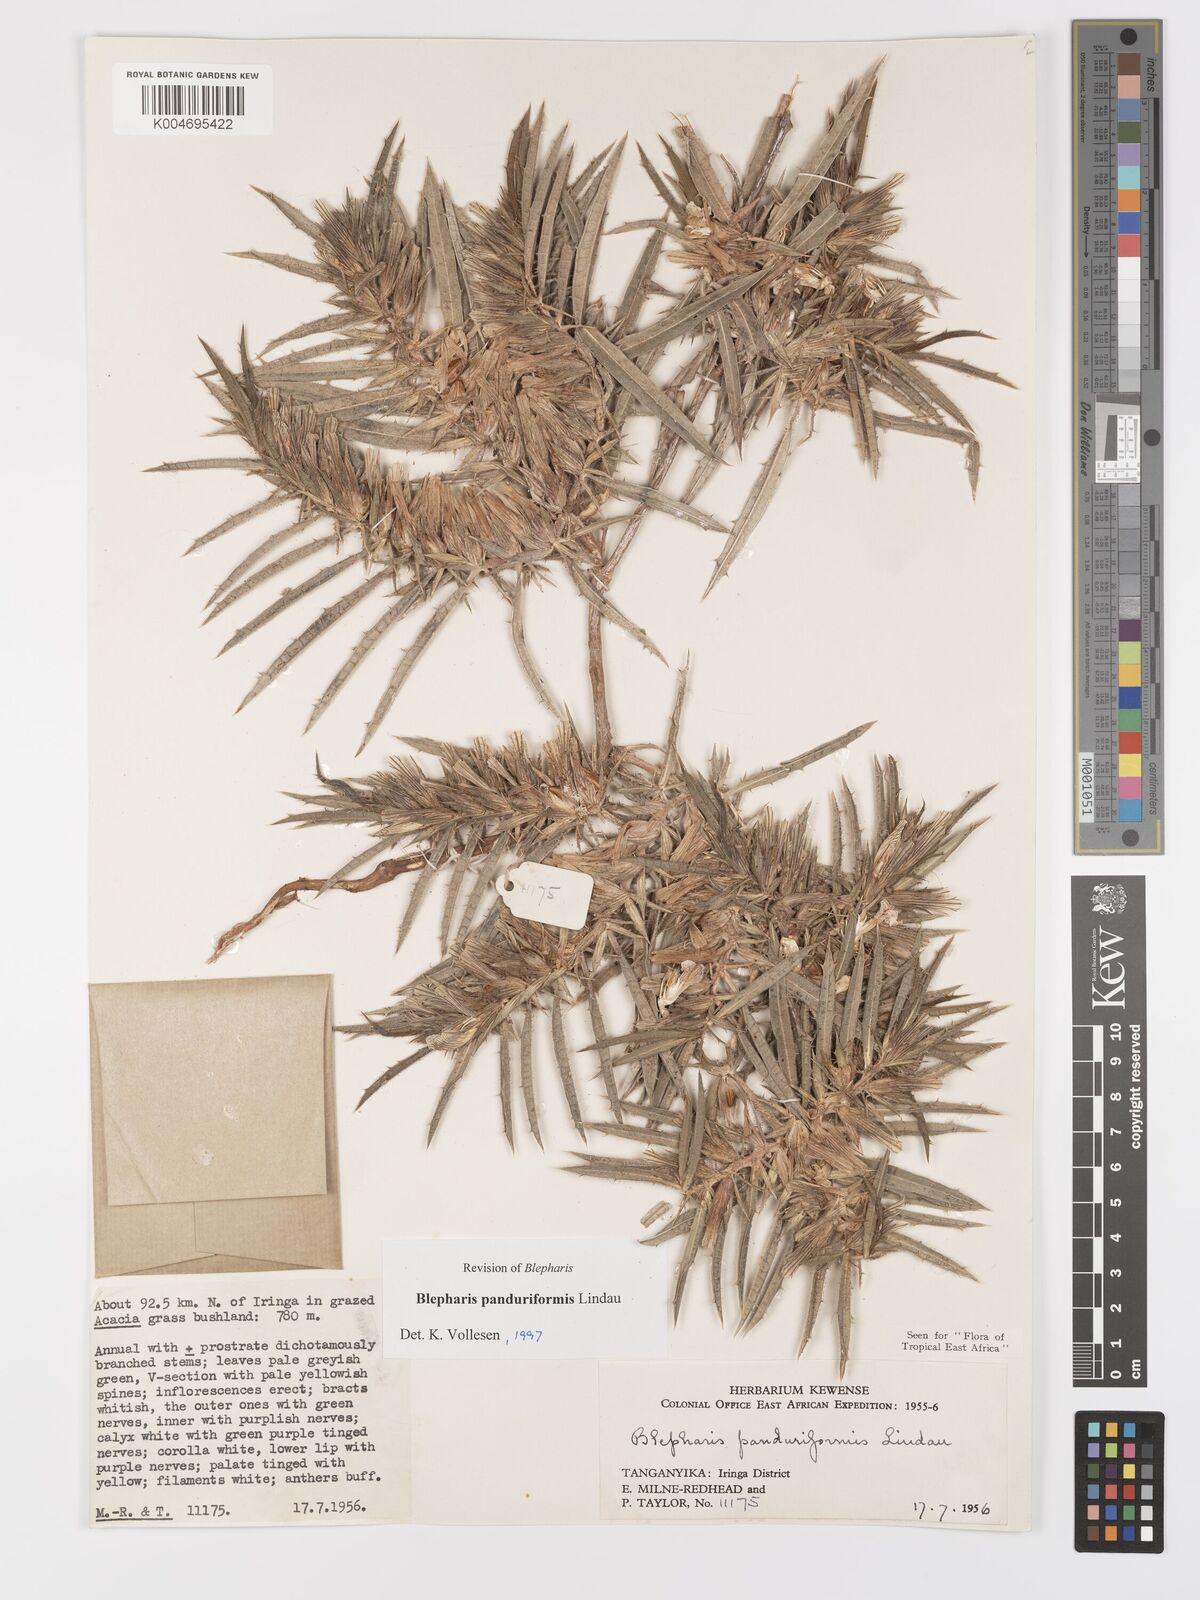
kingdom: Plantae
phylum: Tracheophyta
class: Magnoliopsida
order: Lamiales
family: Acanthaceae
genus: Blepharis
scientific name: Blepharis panduriformis
